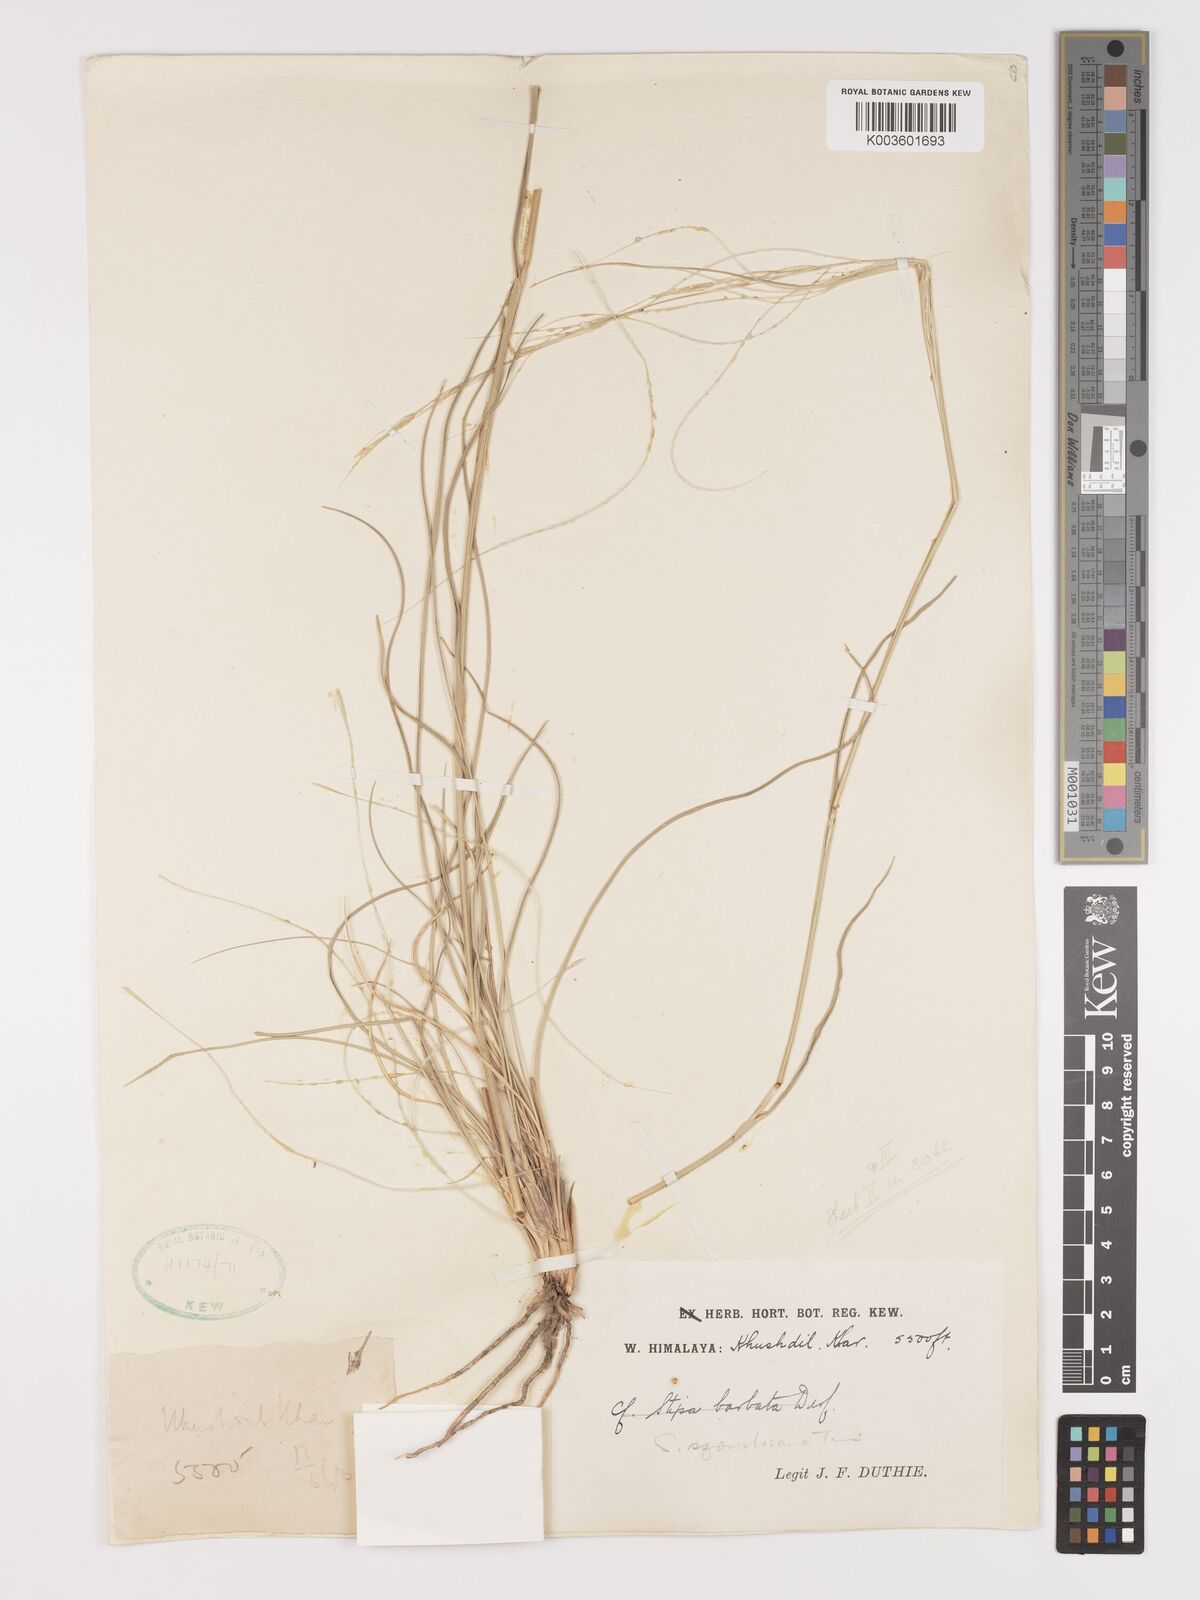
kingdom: Plantae
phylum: Tracheophyta
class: Liliopsida
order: Poales
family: Poaceae
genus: Stipa
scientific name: Stipa arabica
